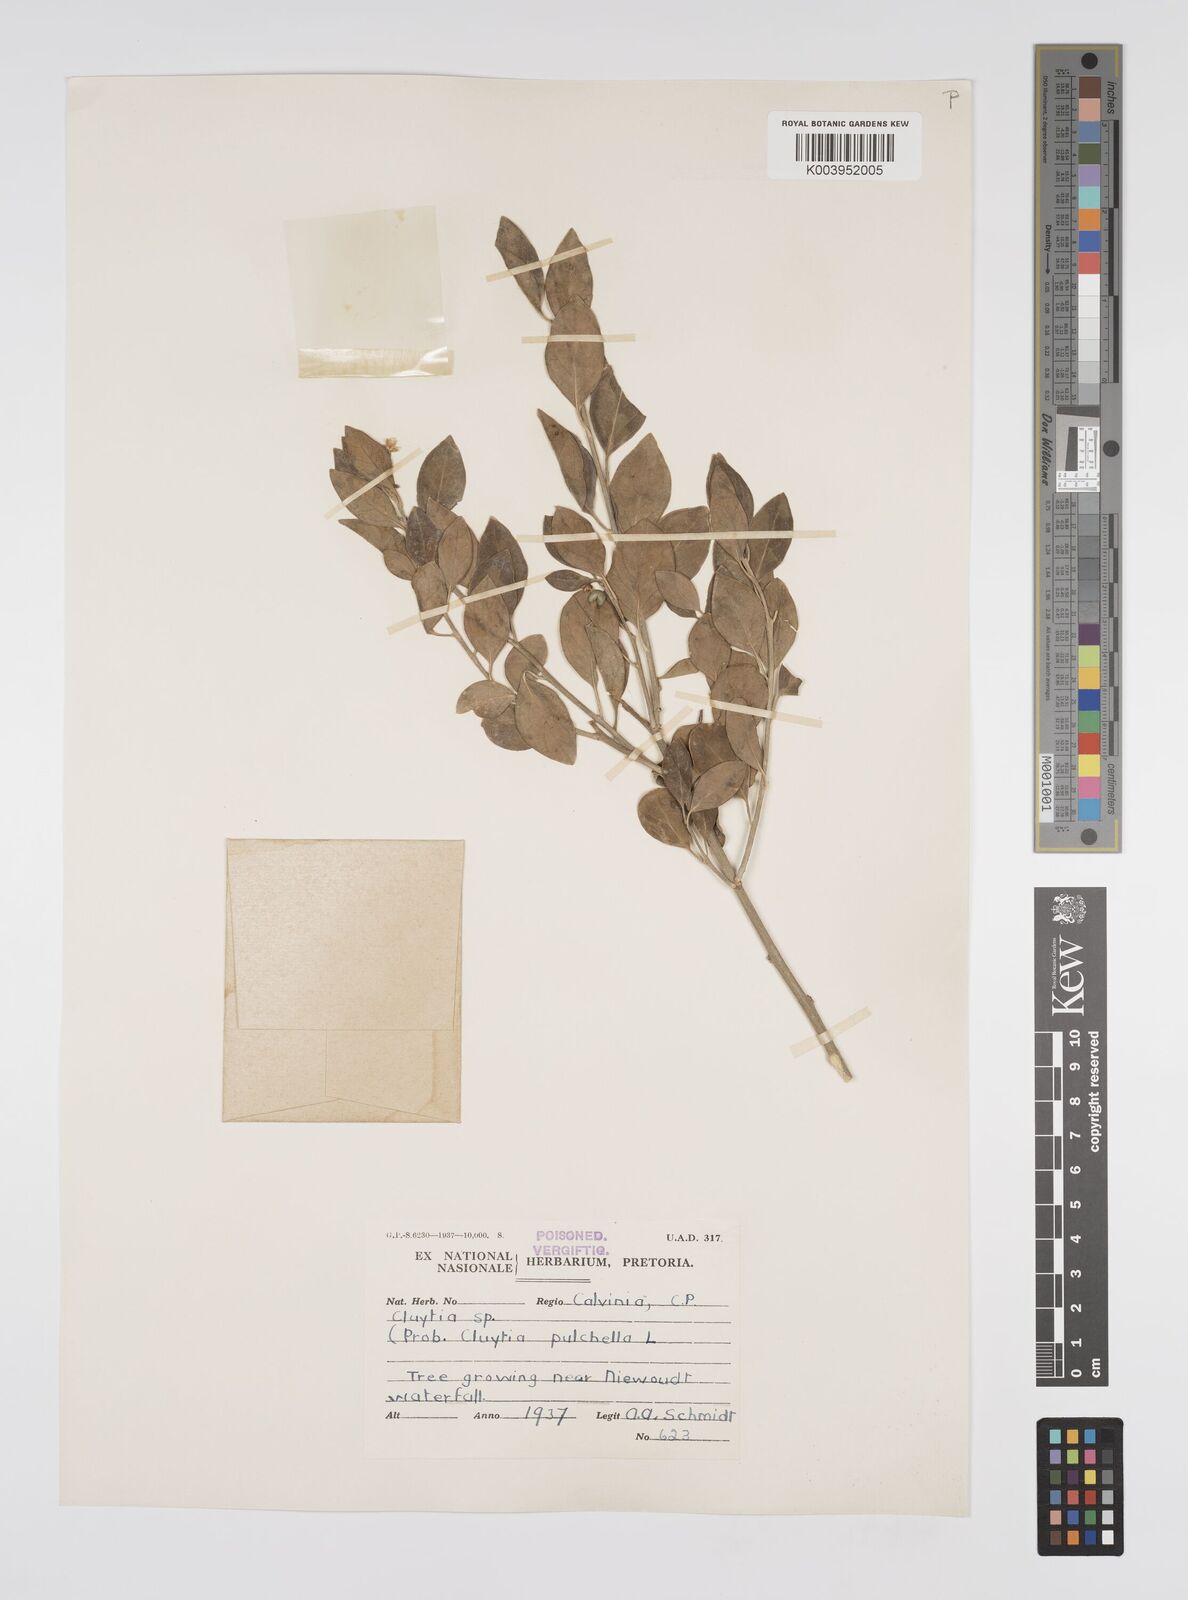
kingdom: Plantae
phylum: Tracheophyta
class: Magnoliopsida
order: Malpighiales
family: Peraceae
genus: Clutia
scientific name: Clutia pulchella
